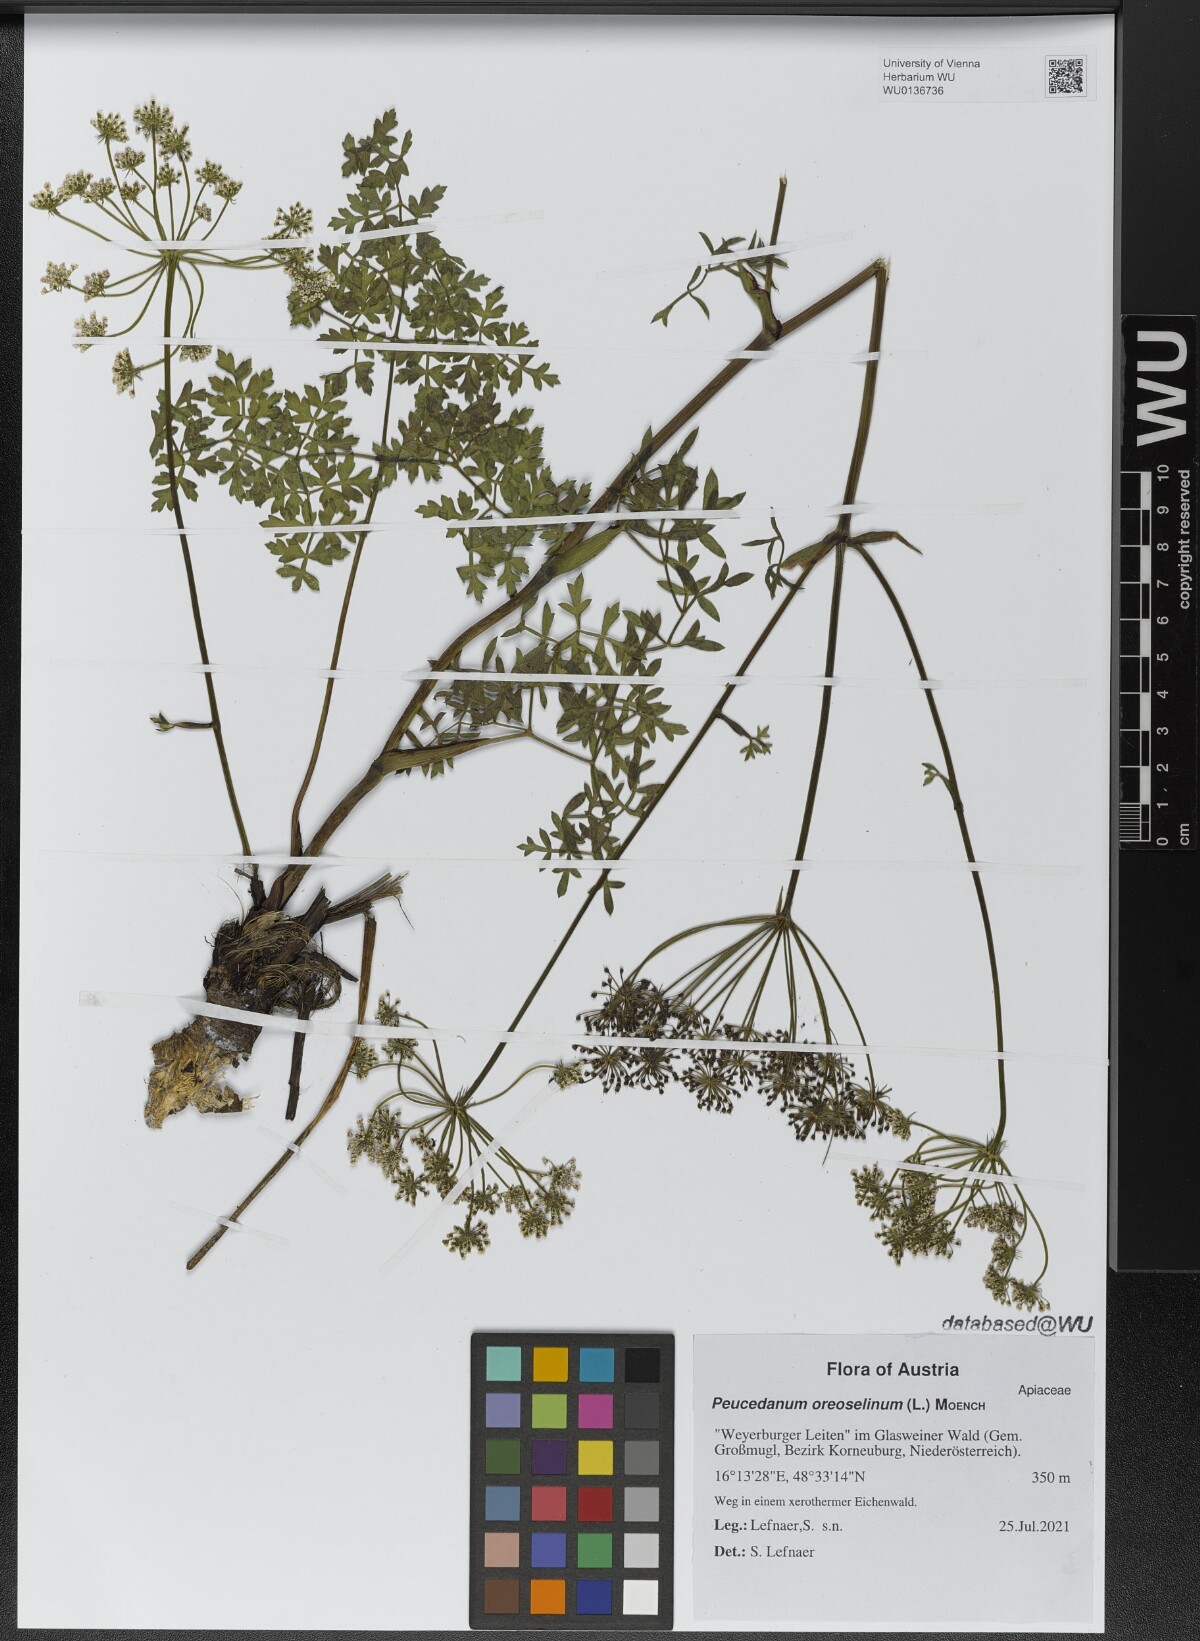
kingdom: Plantae
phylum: Tracheophyta
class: Magnoliopsida
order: Apiales
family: Apiaceae
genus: Oreoselinum
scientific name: Oreoselinum nigrum
